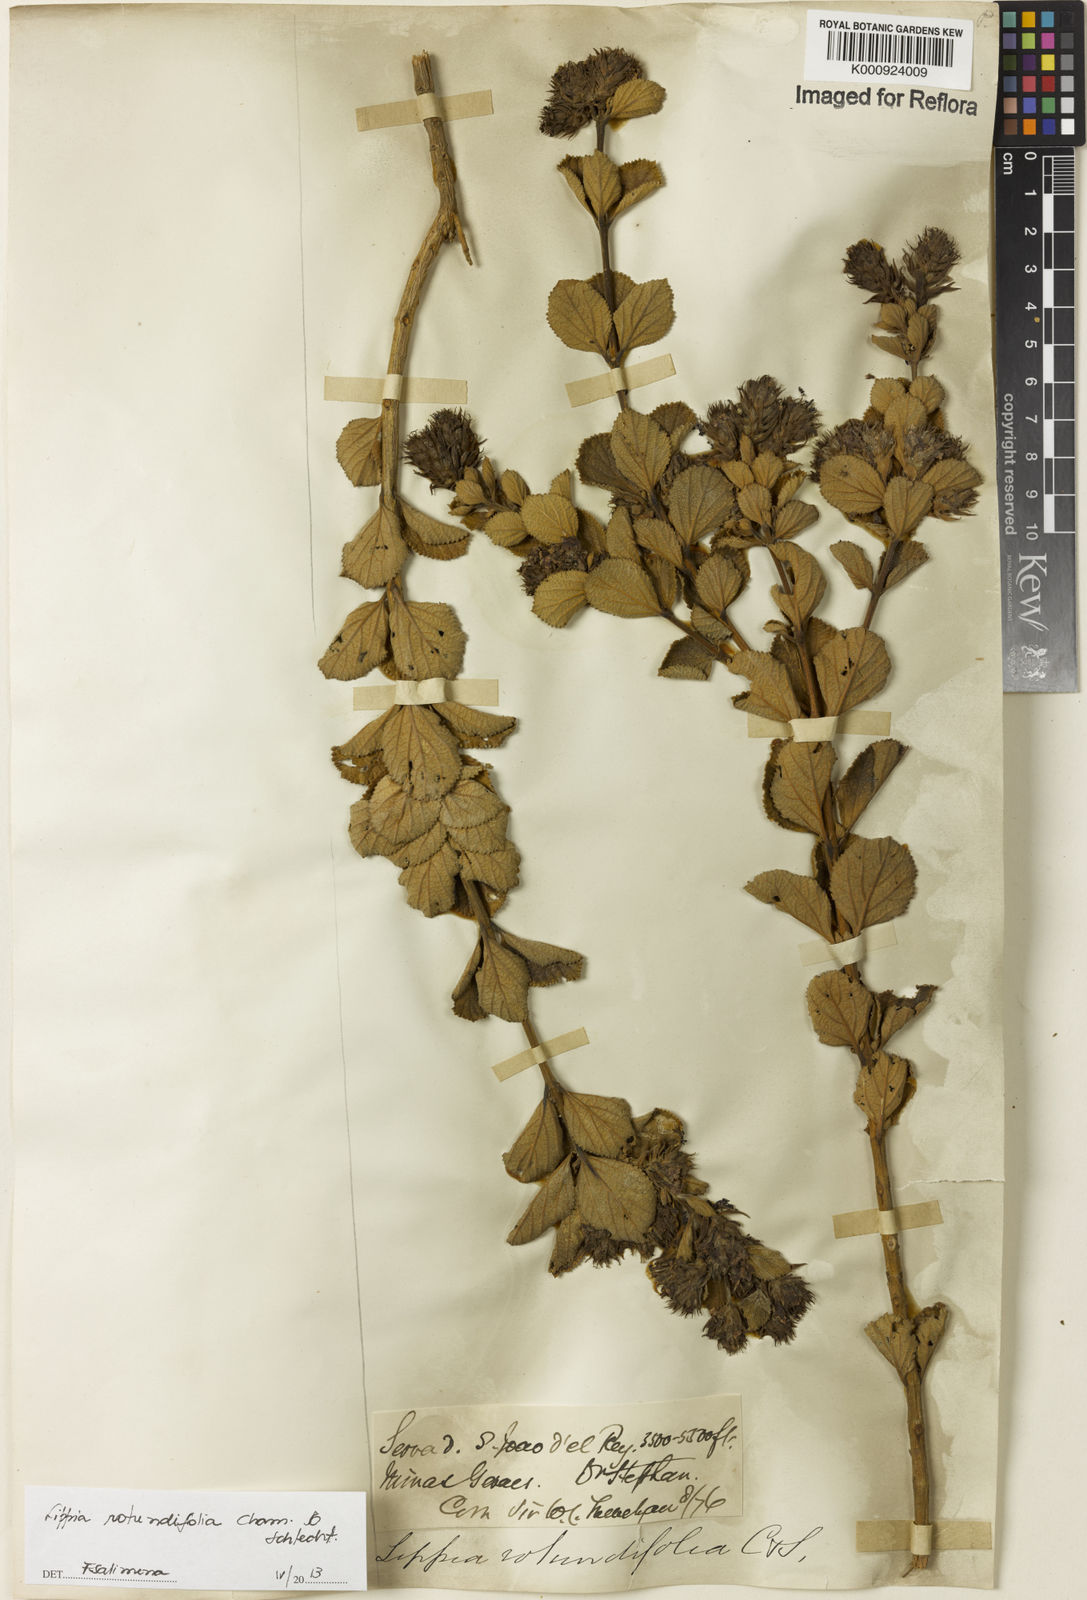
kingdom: Plantae
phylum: Tracheophyta
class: Magnoliopsida
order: Lamiales
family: Verbenaceae
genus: Lippia
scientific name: Lippia rotundifolia
